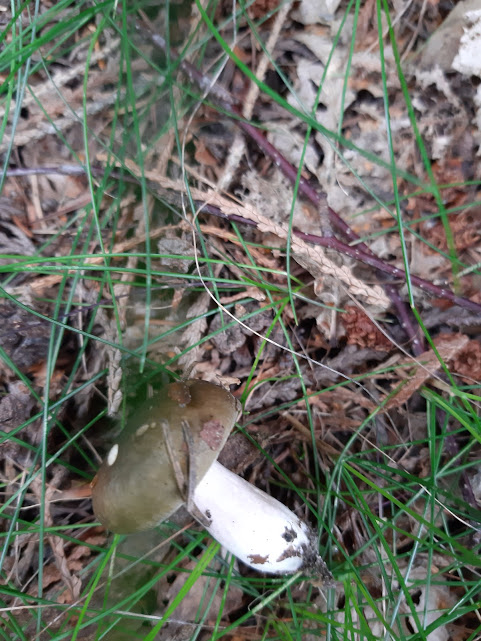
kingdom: Fungi
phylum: Basidiomycota
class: Agaricomycetes
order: Russulales
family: Russulaceae
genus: Russula
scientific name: Russula
